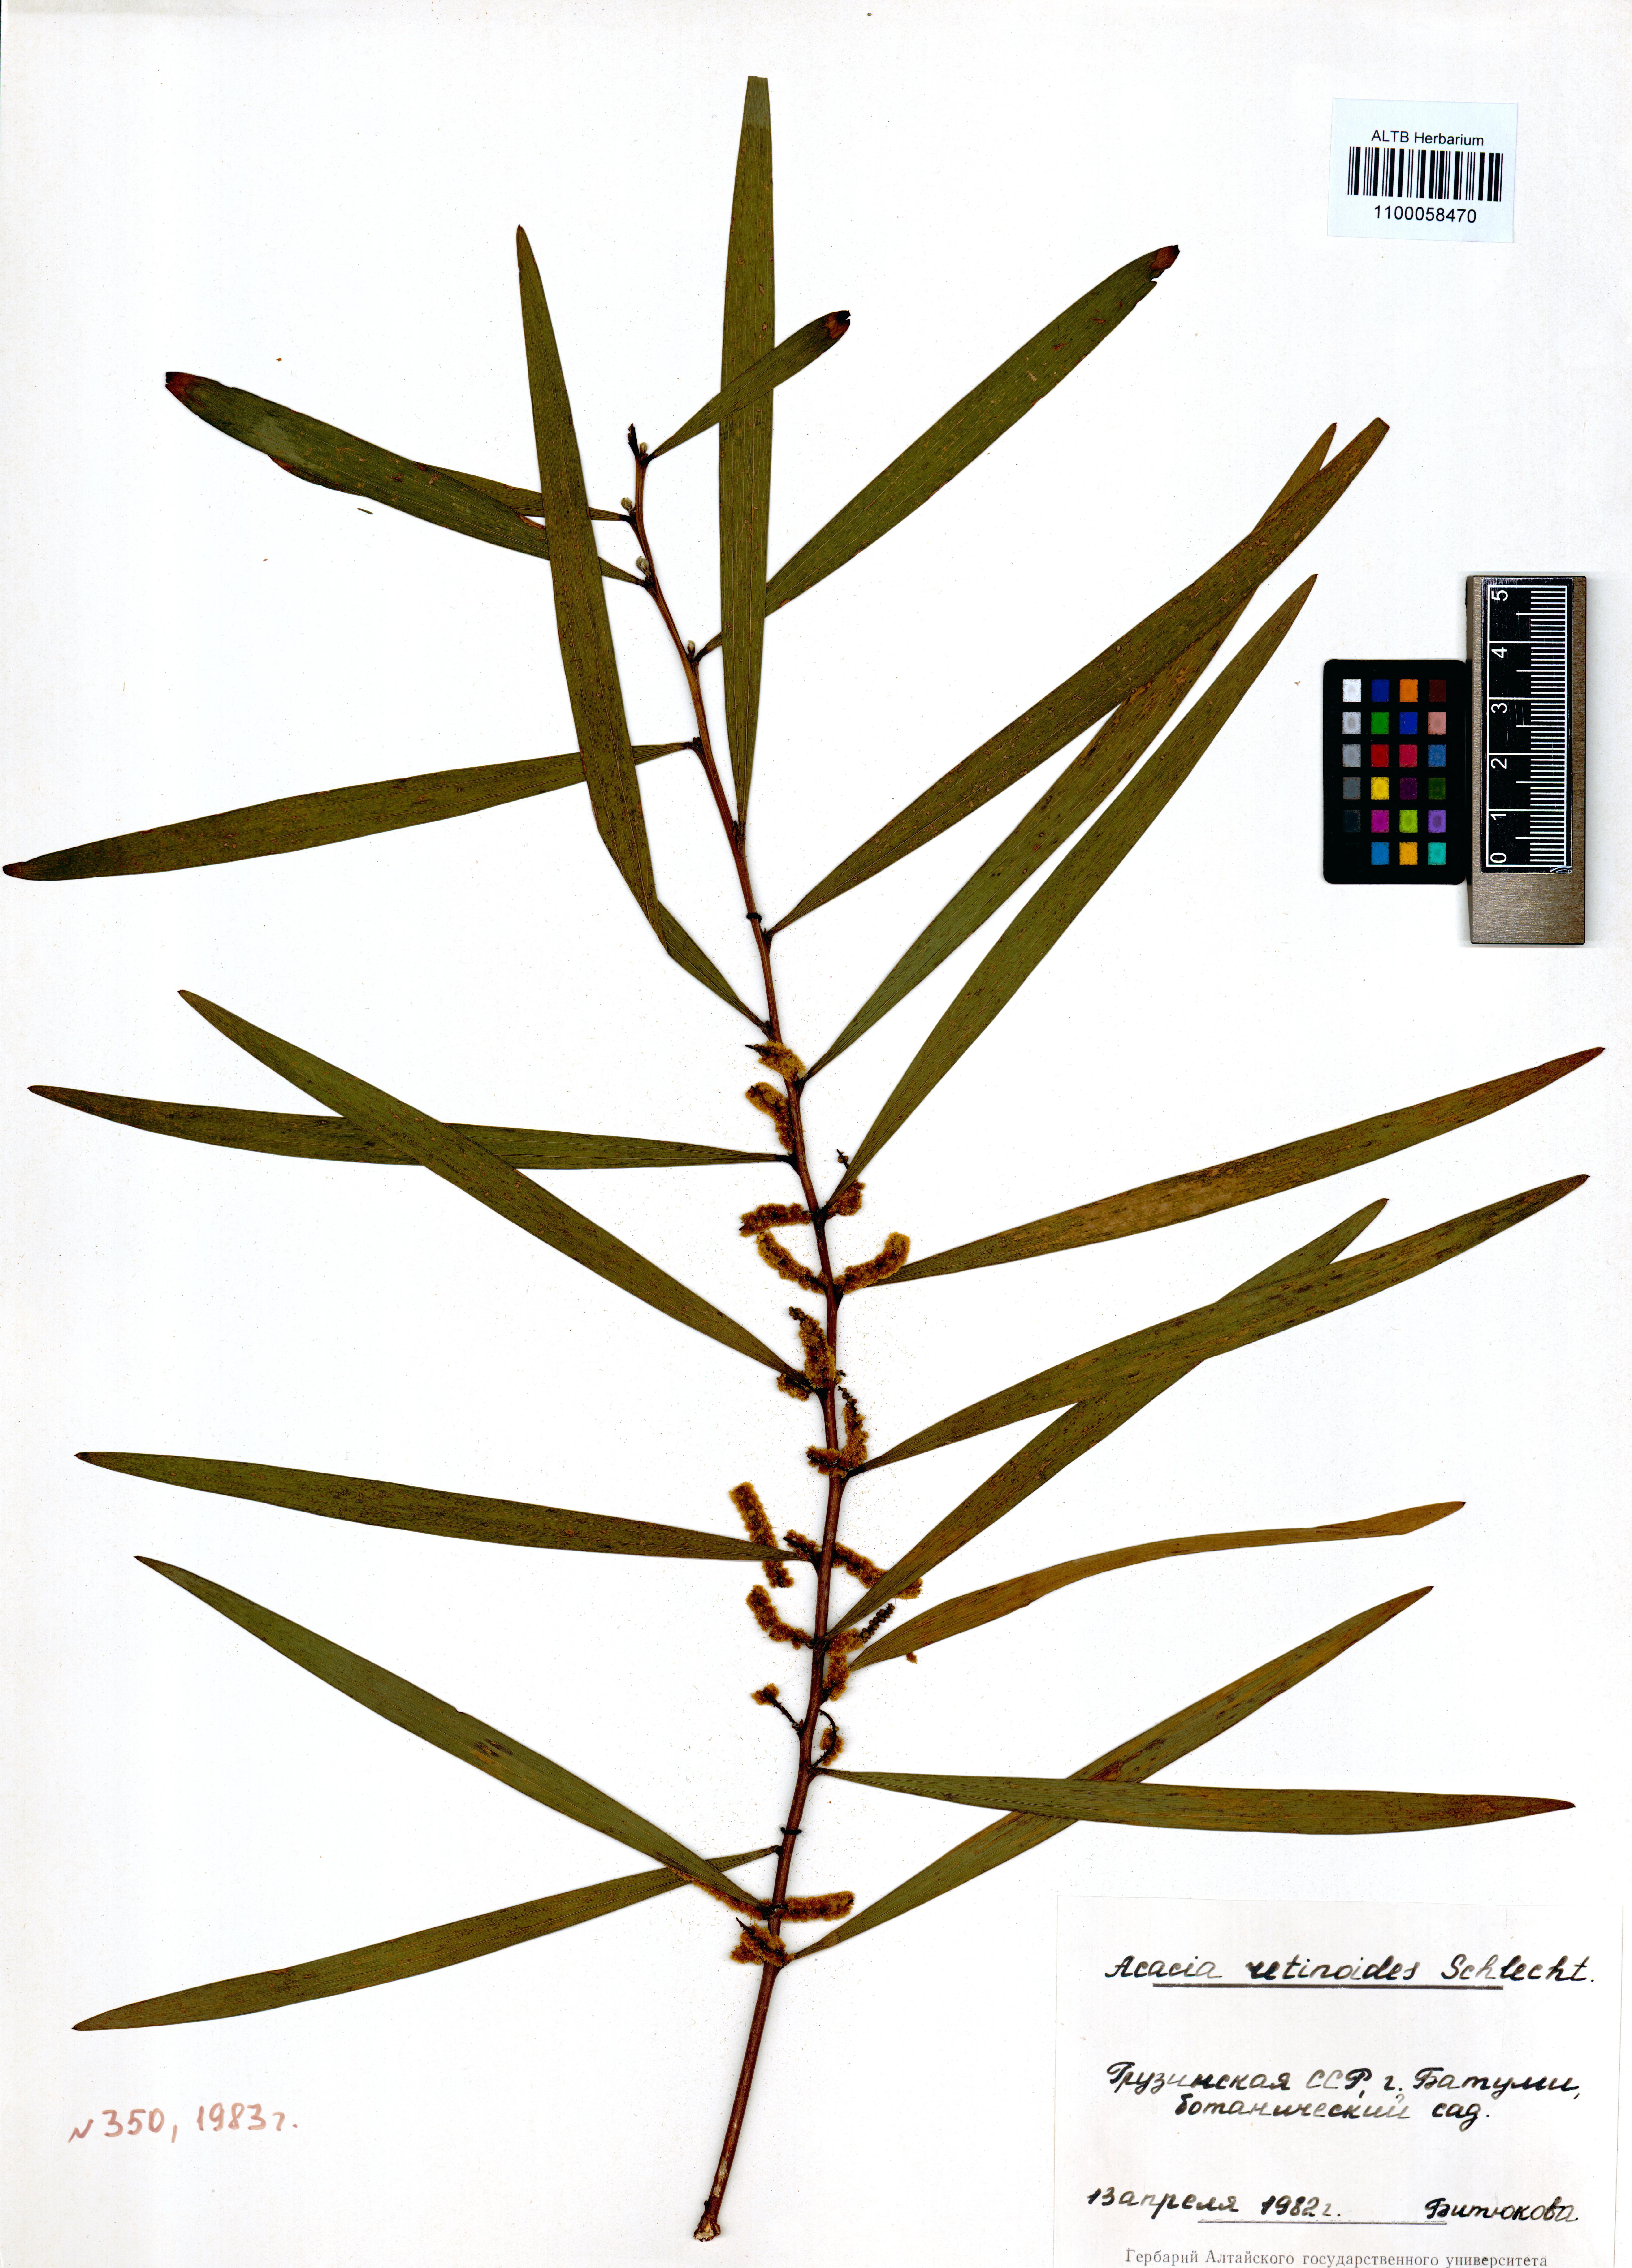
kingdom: Plantae
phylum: Tracheophyta
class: Magnoliopsida
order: Fabales
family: Fabaceae
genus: Acacia
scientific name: Acacia retinodes
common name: Silver wattle
